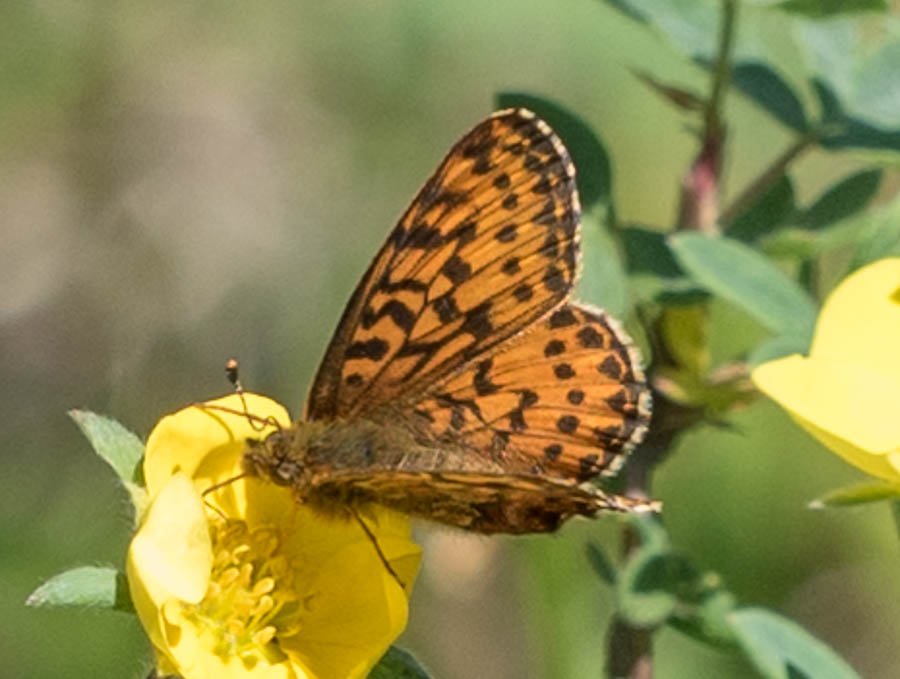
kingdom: Animalia
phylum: Arthropoda
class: Insecta
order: Lepidoptera
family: Nymphalidae
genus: Boloria
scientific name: Boloria chariclea
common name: Arctic Fritillary
